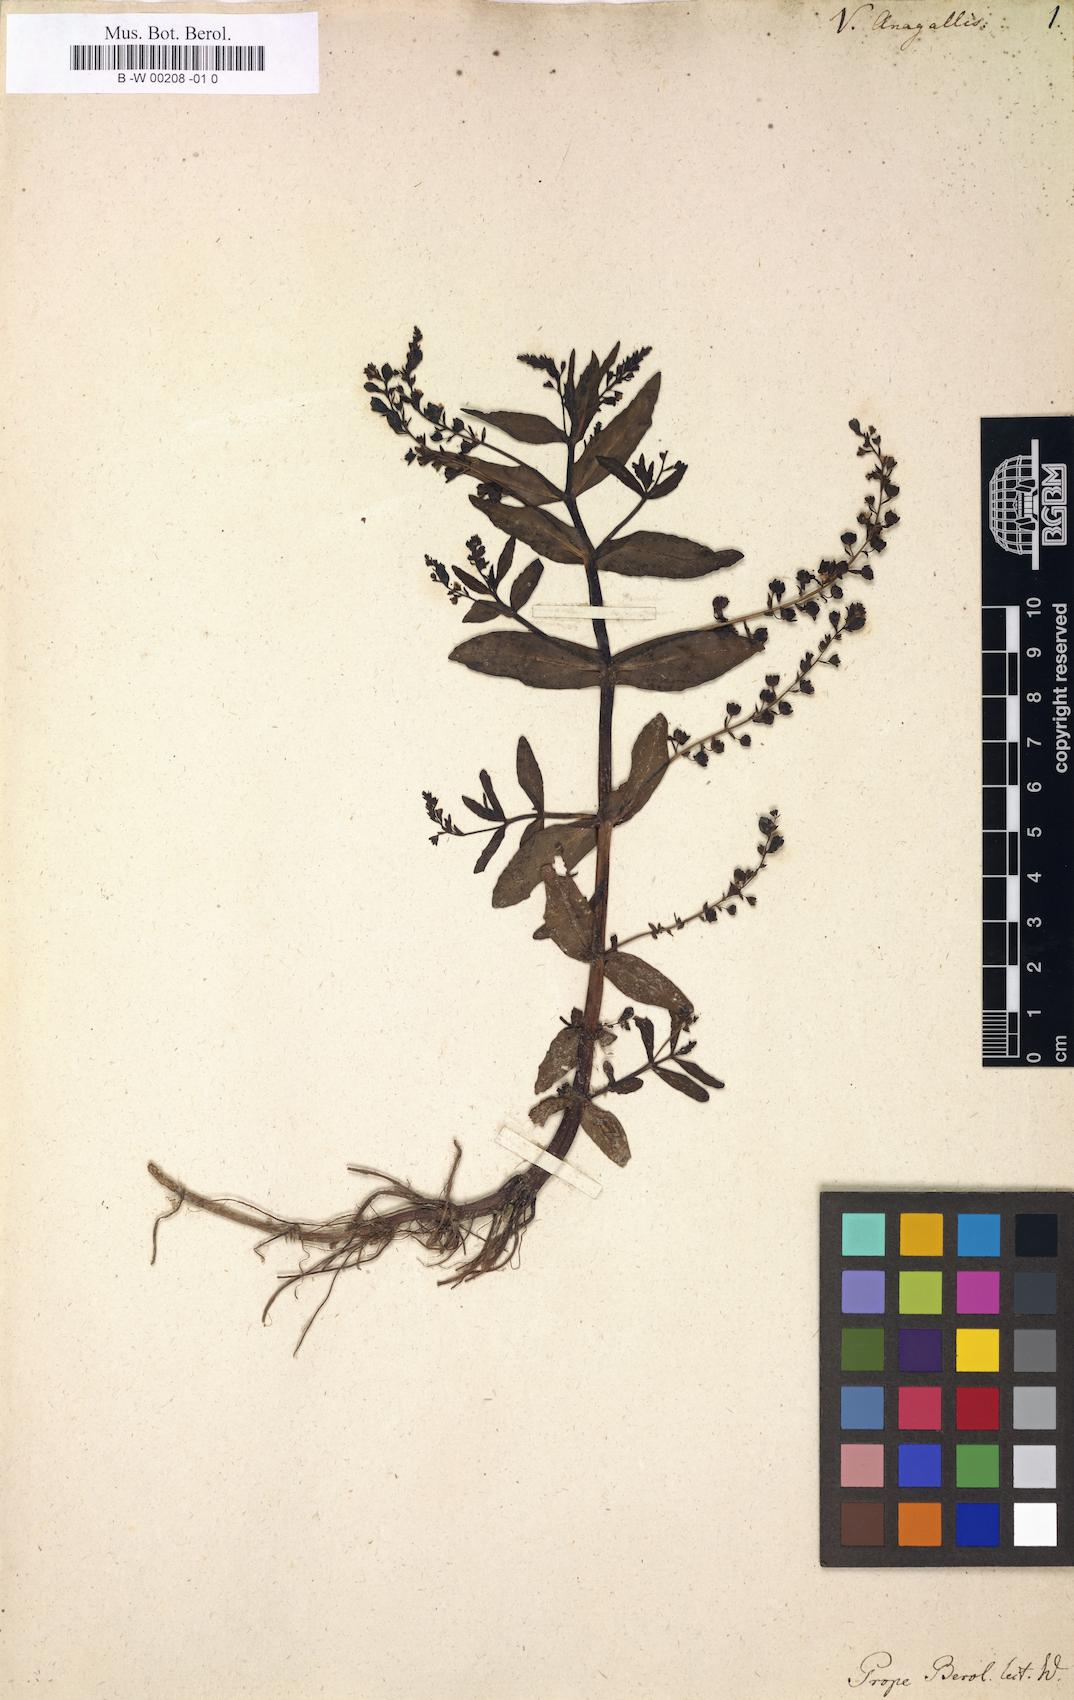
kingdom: Plantae
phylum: Tracheophyta
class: Magnoliopsida
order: Lamiales
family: Plantaginaceae
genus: Veronica
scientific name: Veronica anagallis
